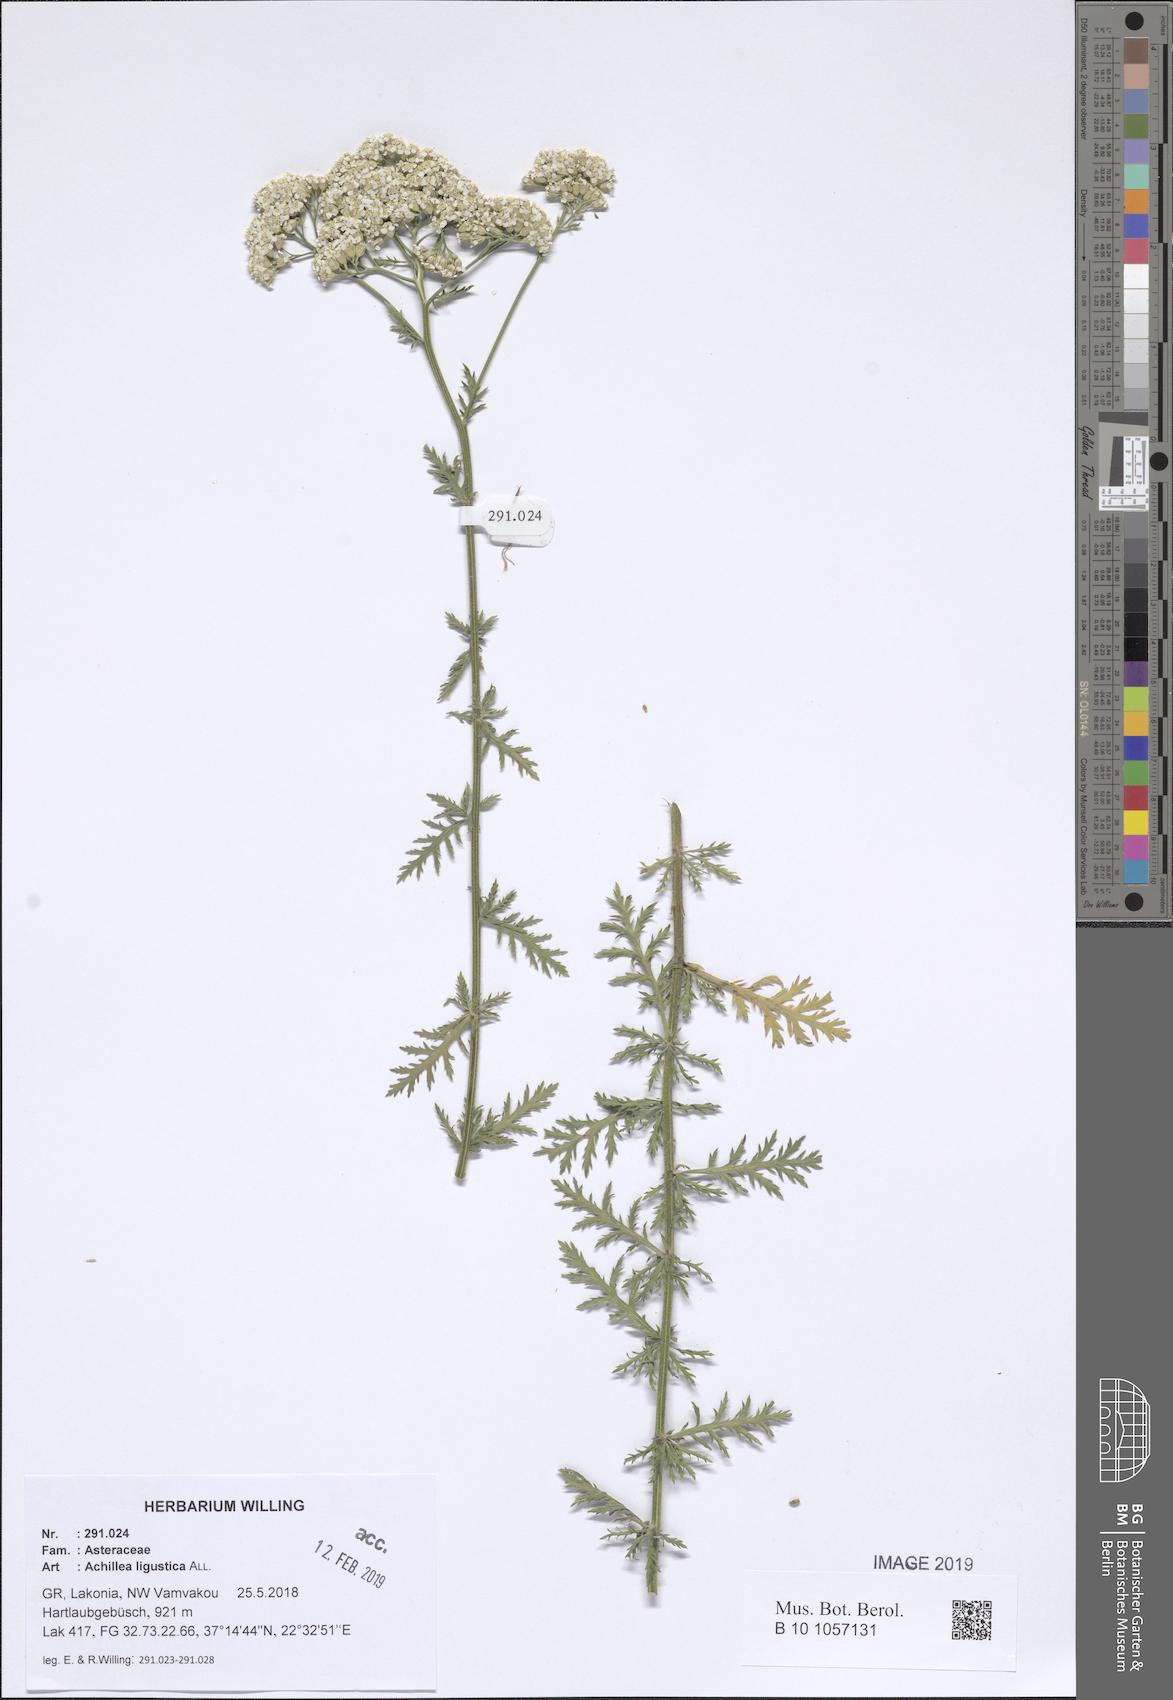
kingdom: Plantae
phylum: Tracheophyta
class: Magnoliopsida
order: Asterales
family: Asteraceae
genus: Achillea
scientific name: Achillea ligustica
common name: Southern yarrow
